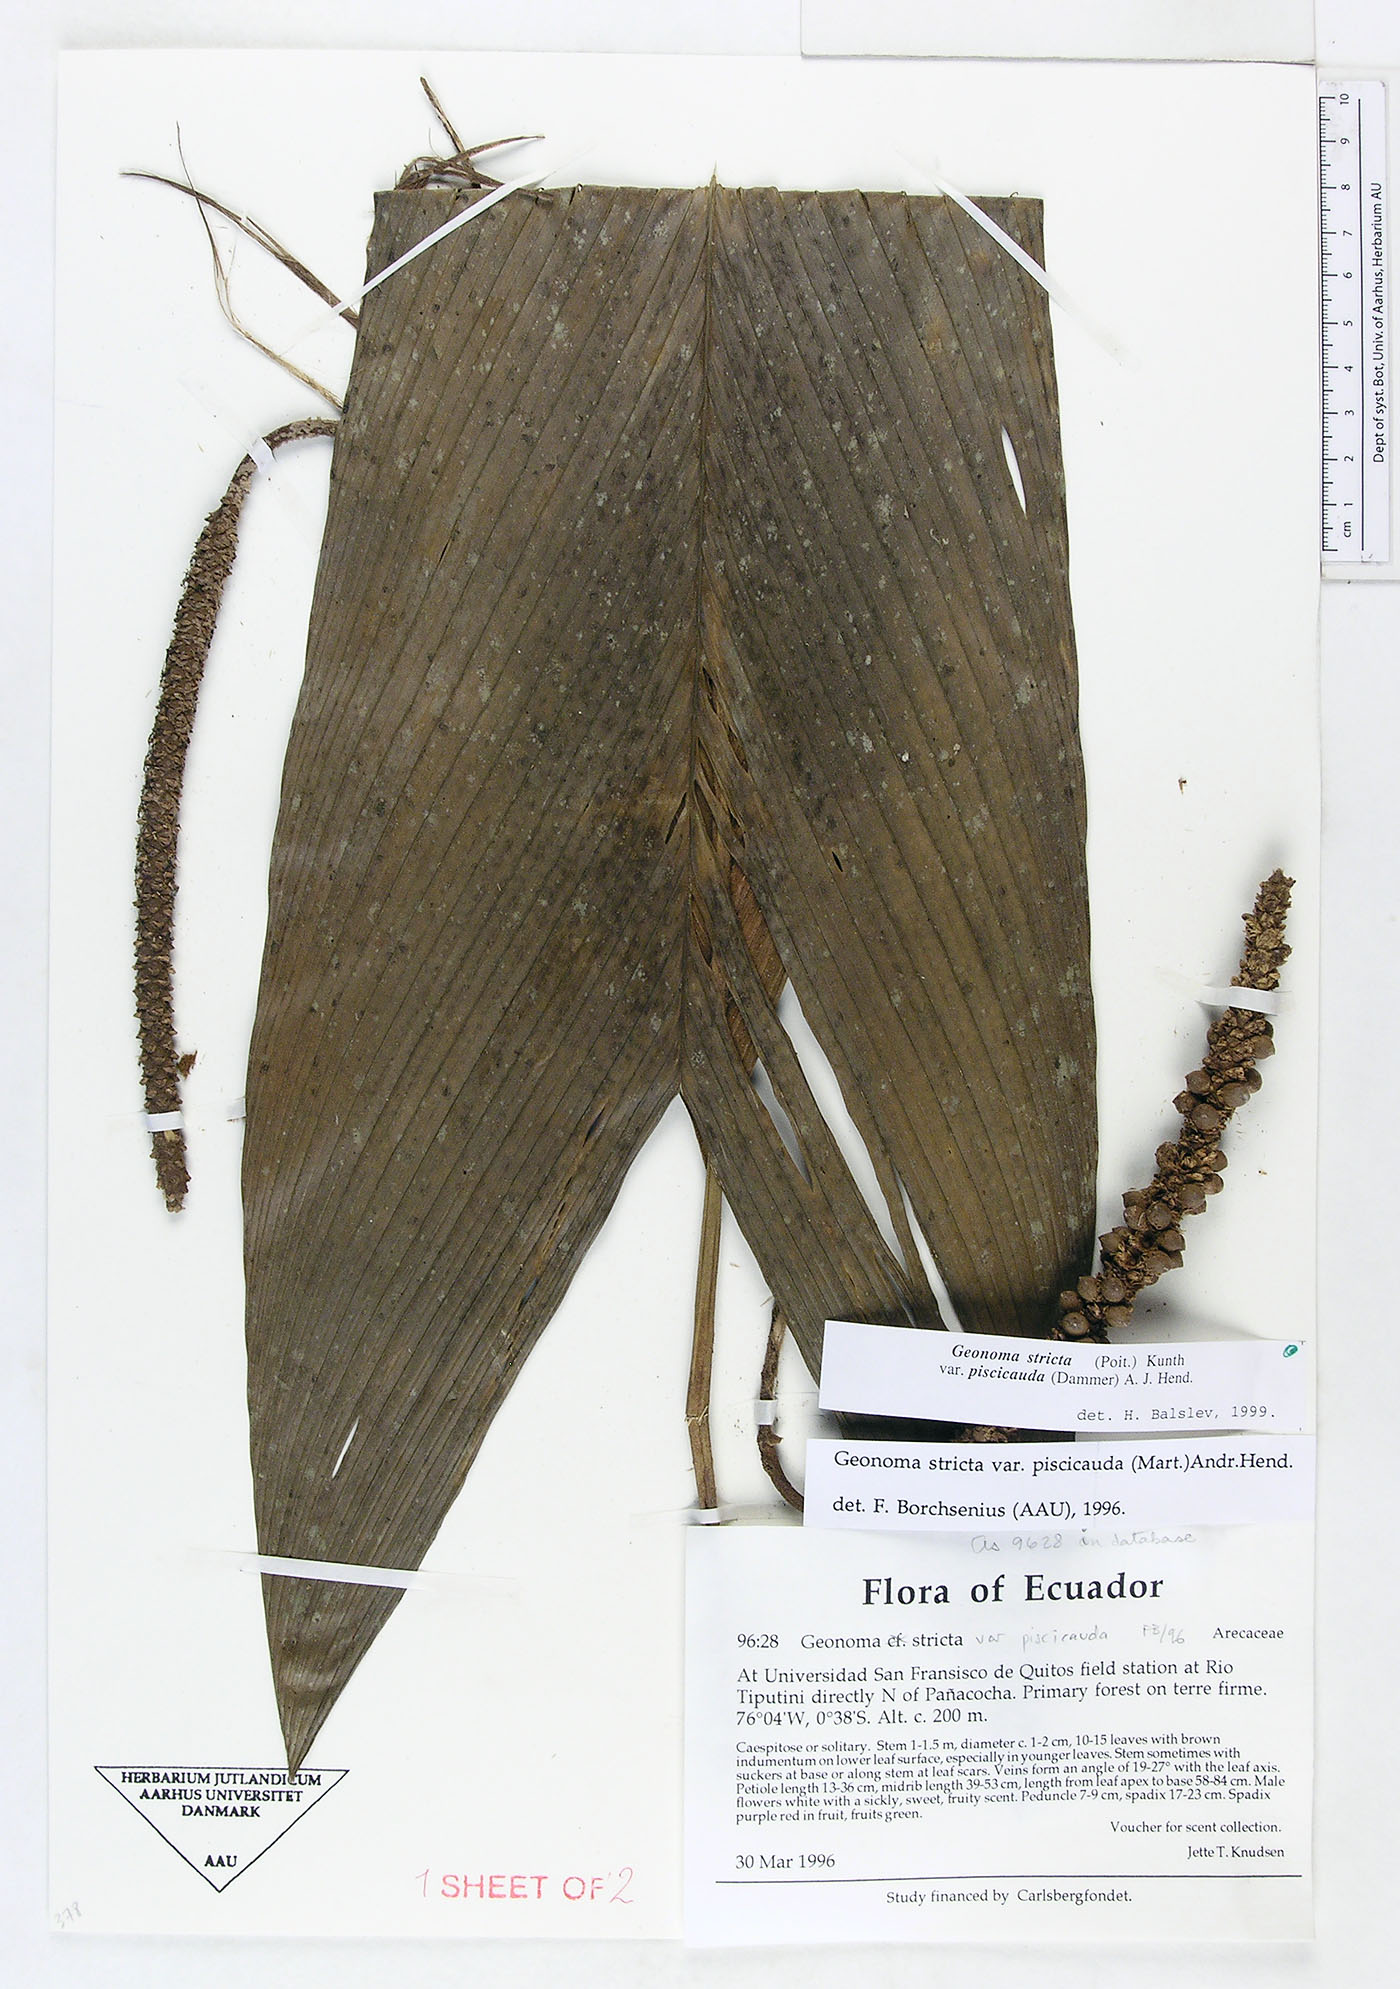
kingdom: Plantae
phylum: Tracheophyta
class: Liliopsida
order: Arecales
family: Arecaceae
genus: Geonoma
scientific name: Geonoma stricta
